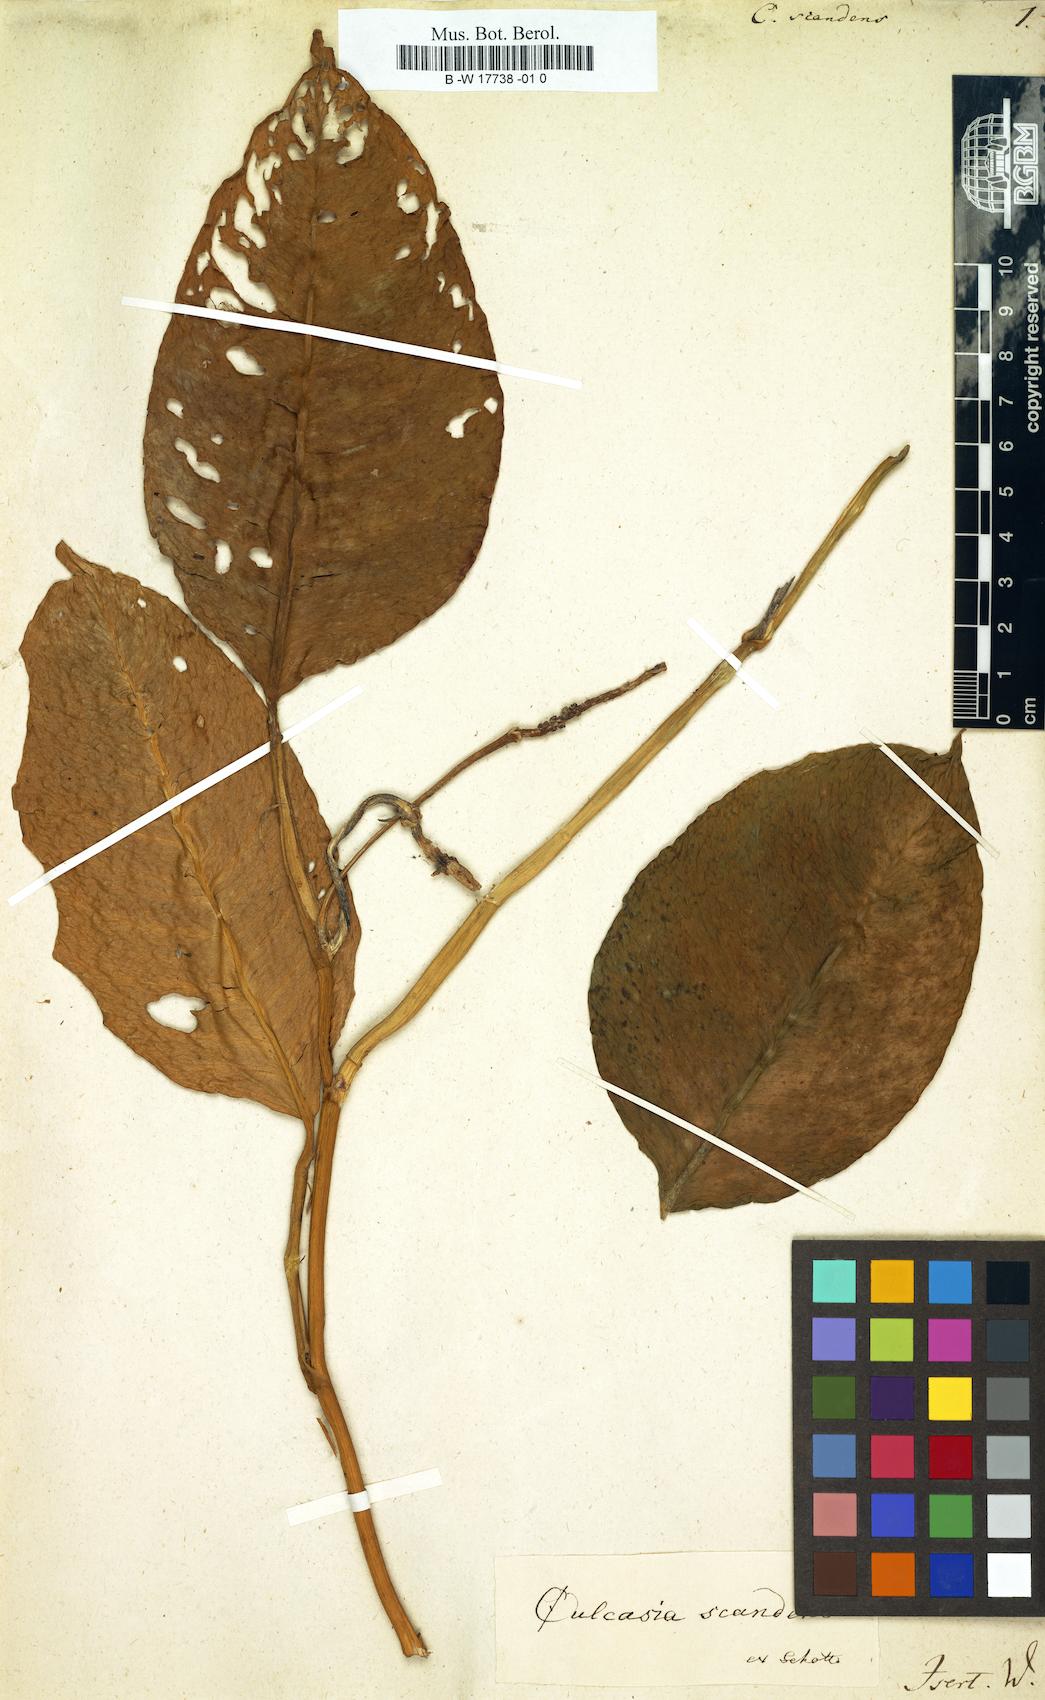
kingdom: Plantae
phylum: Tracheophyta
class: Liliopsida
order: Alismatales
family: Araceae
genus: Culcasia
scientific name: Culcasia scandens
